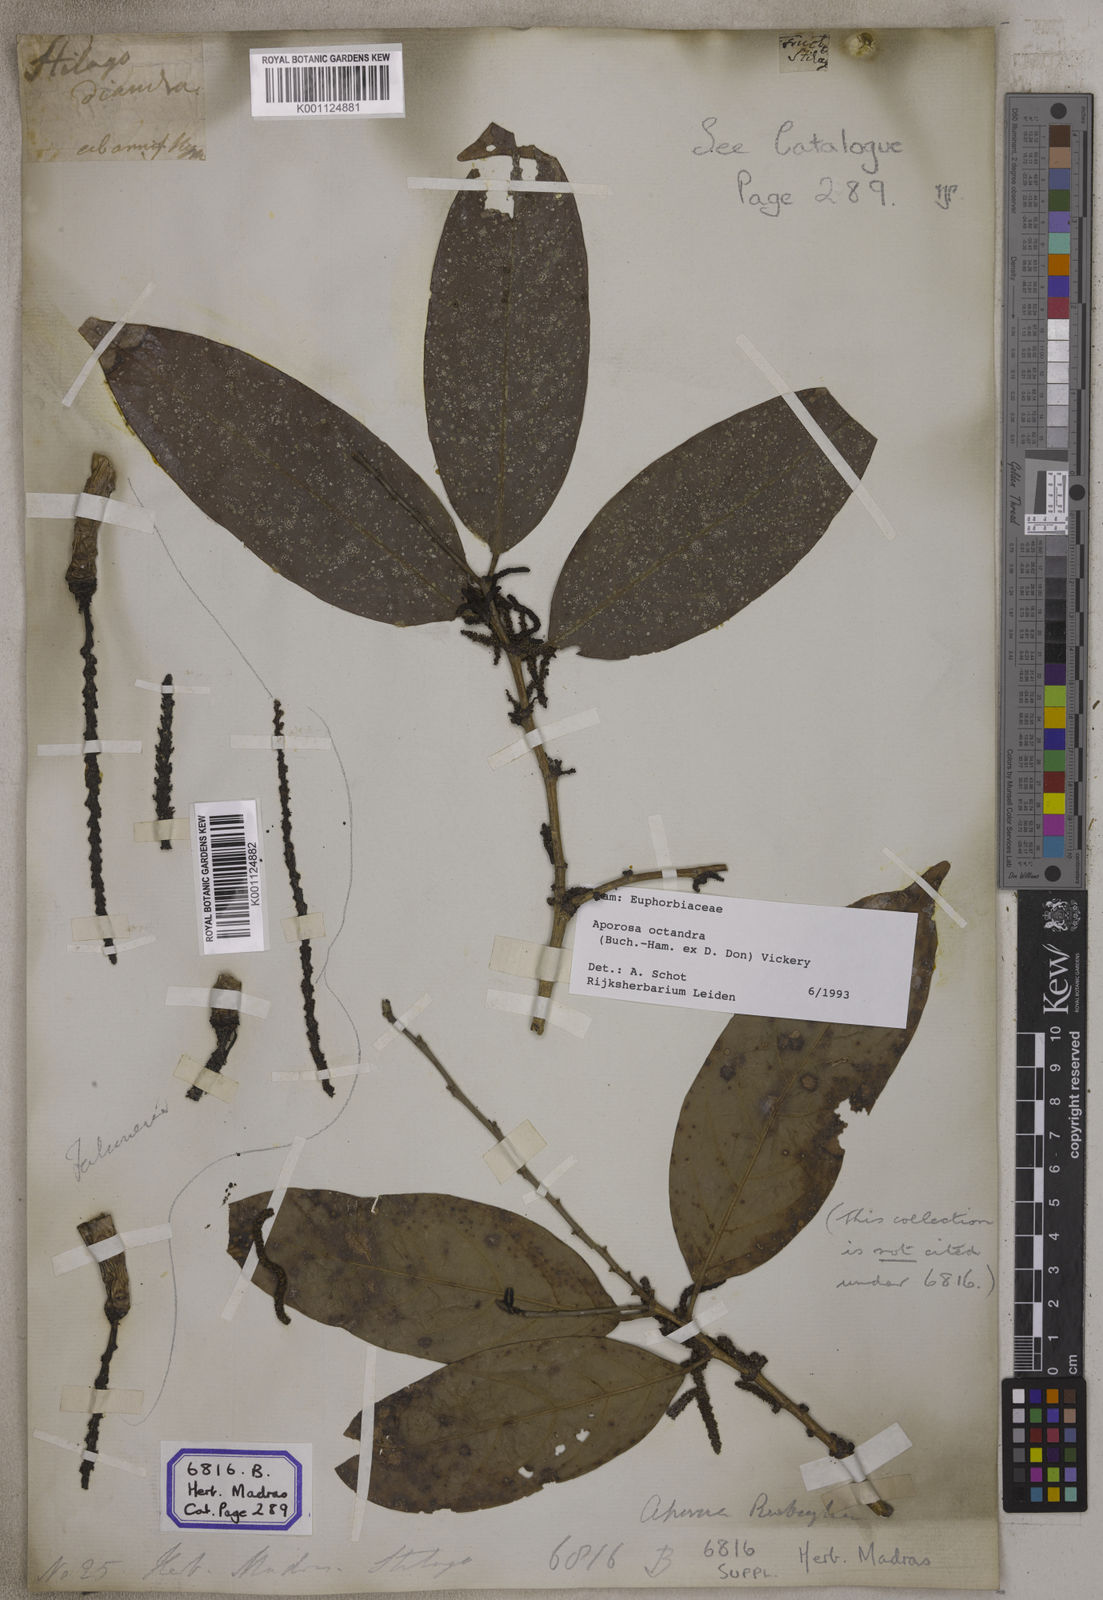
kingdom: Plantae
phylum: Tracheophyta
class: Magnoliopsida
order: Malpighiales
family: Phyllanthaceae
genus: Aporosa
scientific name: Aporosa
